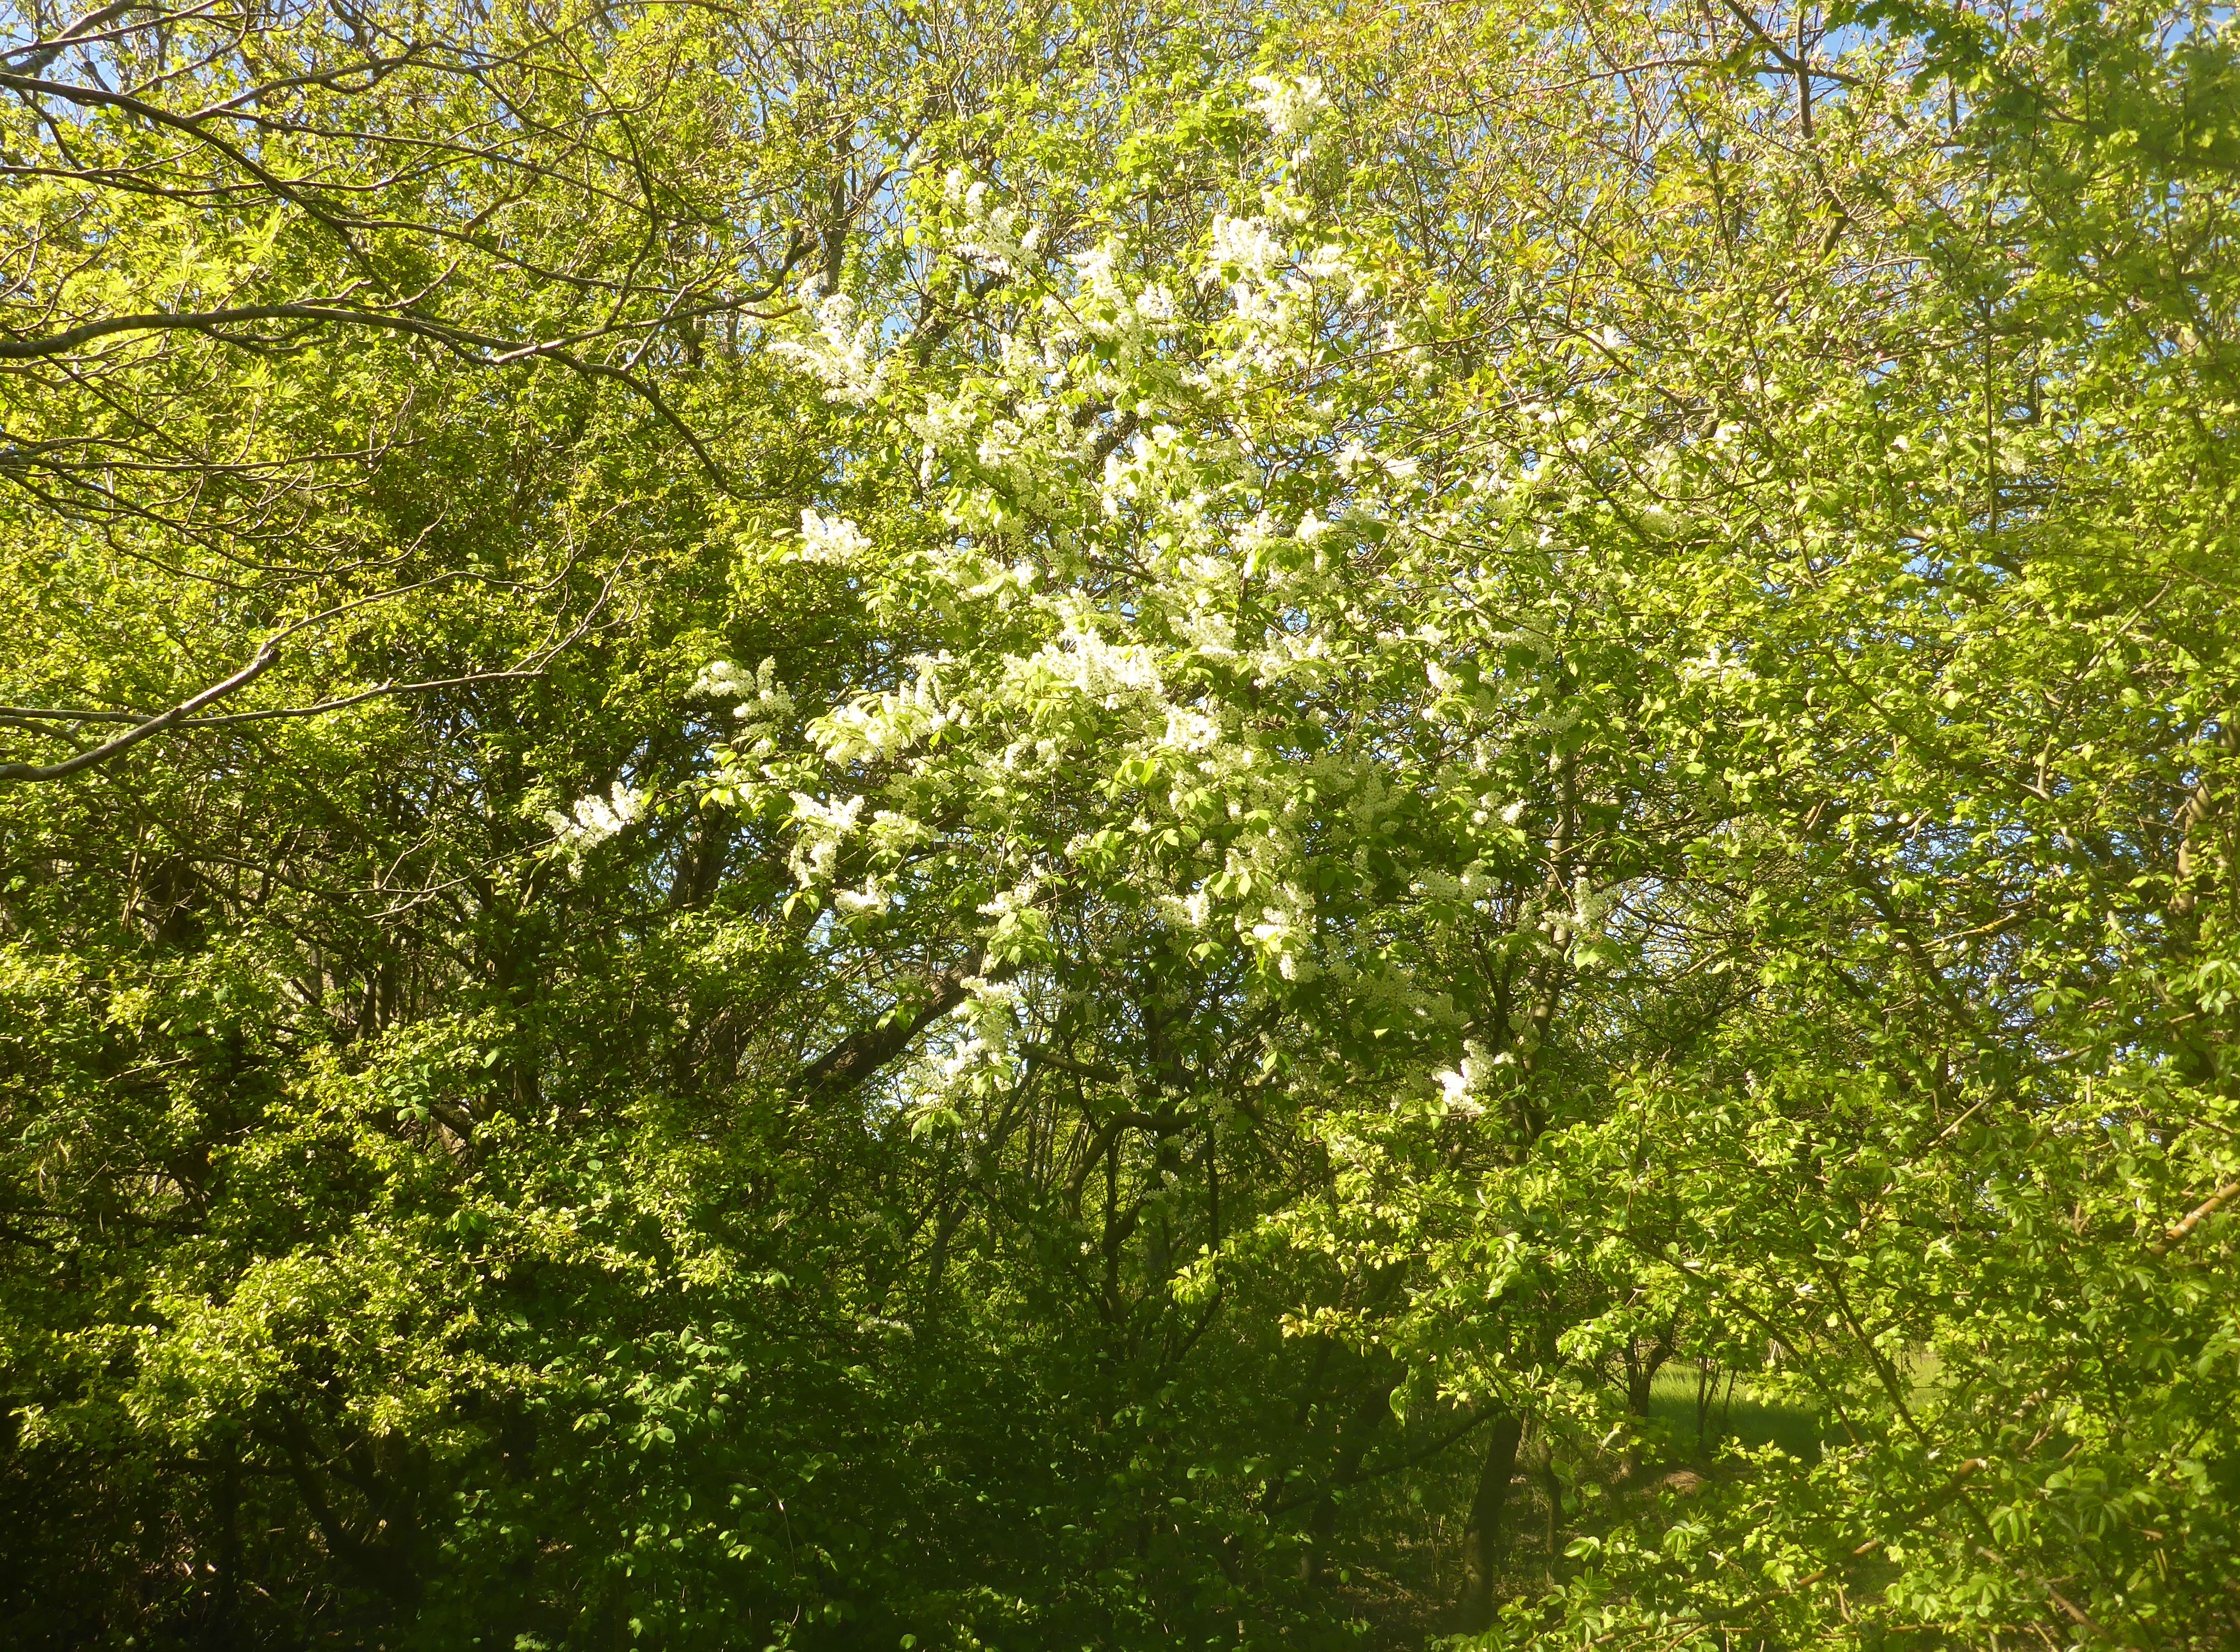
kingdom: Plantae
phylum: Tracheophyta
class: Magnoliopsida
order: Rosales
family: Rosaceae
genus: Prunus
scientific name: Prunus padus
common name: Almindelig hæg
